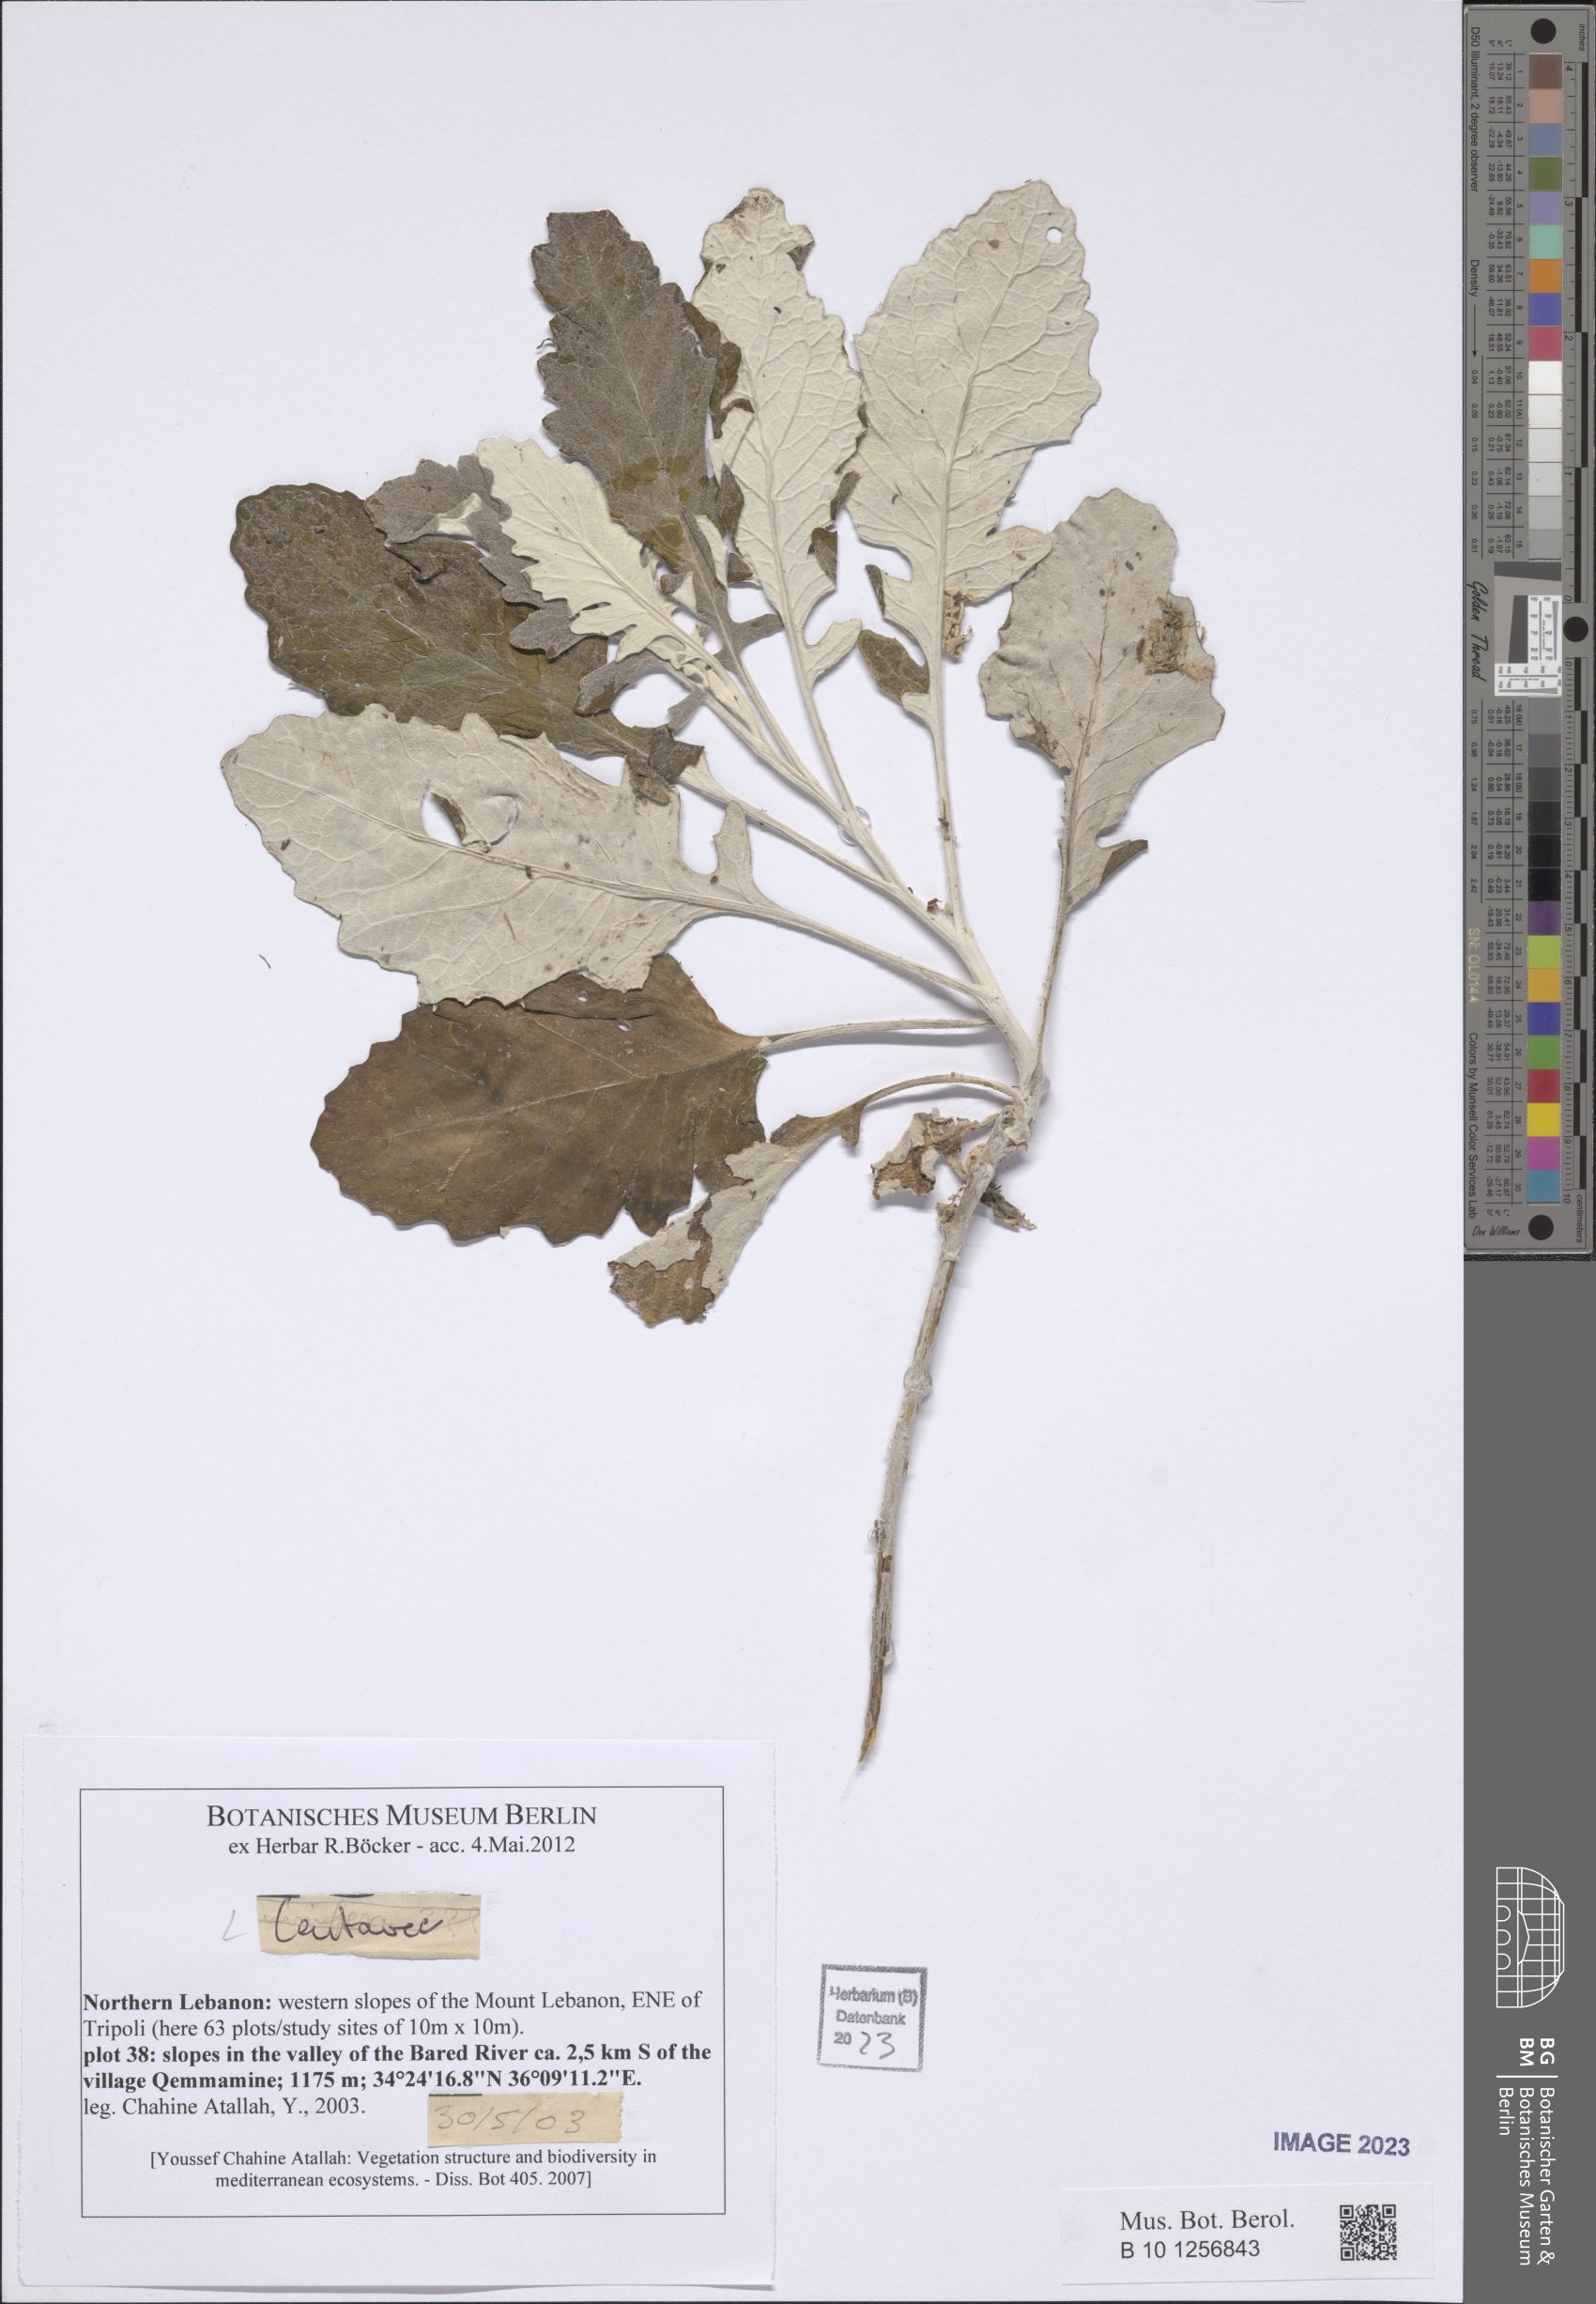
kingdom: Plantae
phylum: Tracheophyta
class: Magnoliopsida
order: Asterales
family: Asteraceae
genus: Centaurea
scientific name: Centaurea
